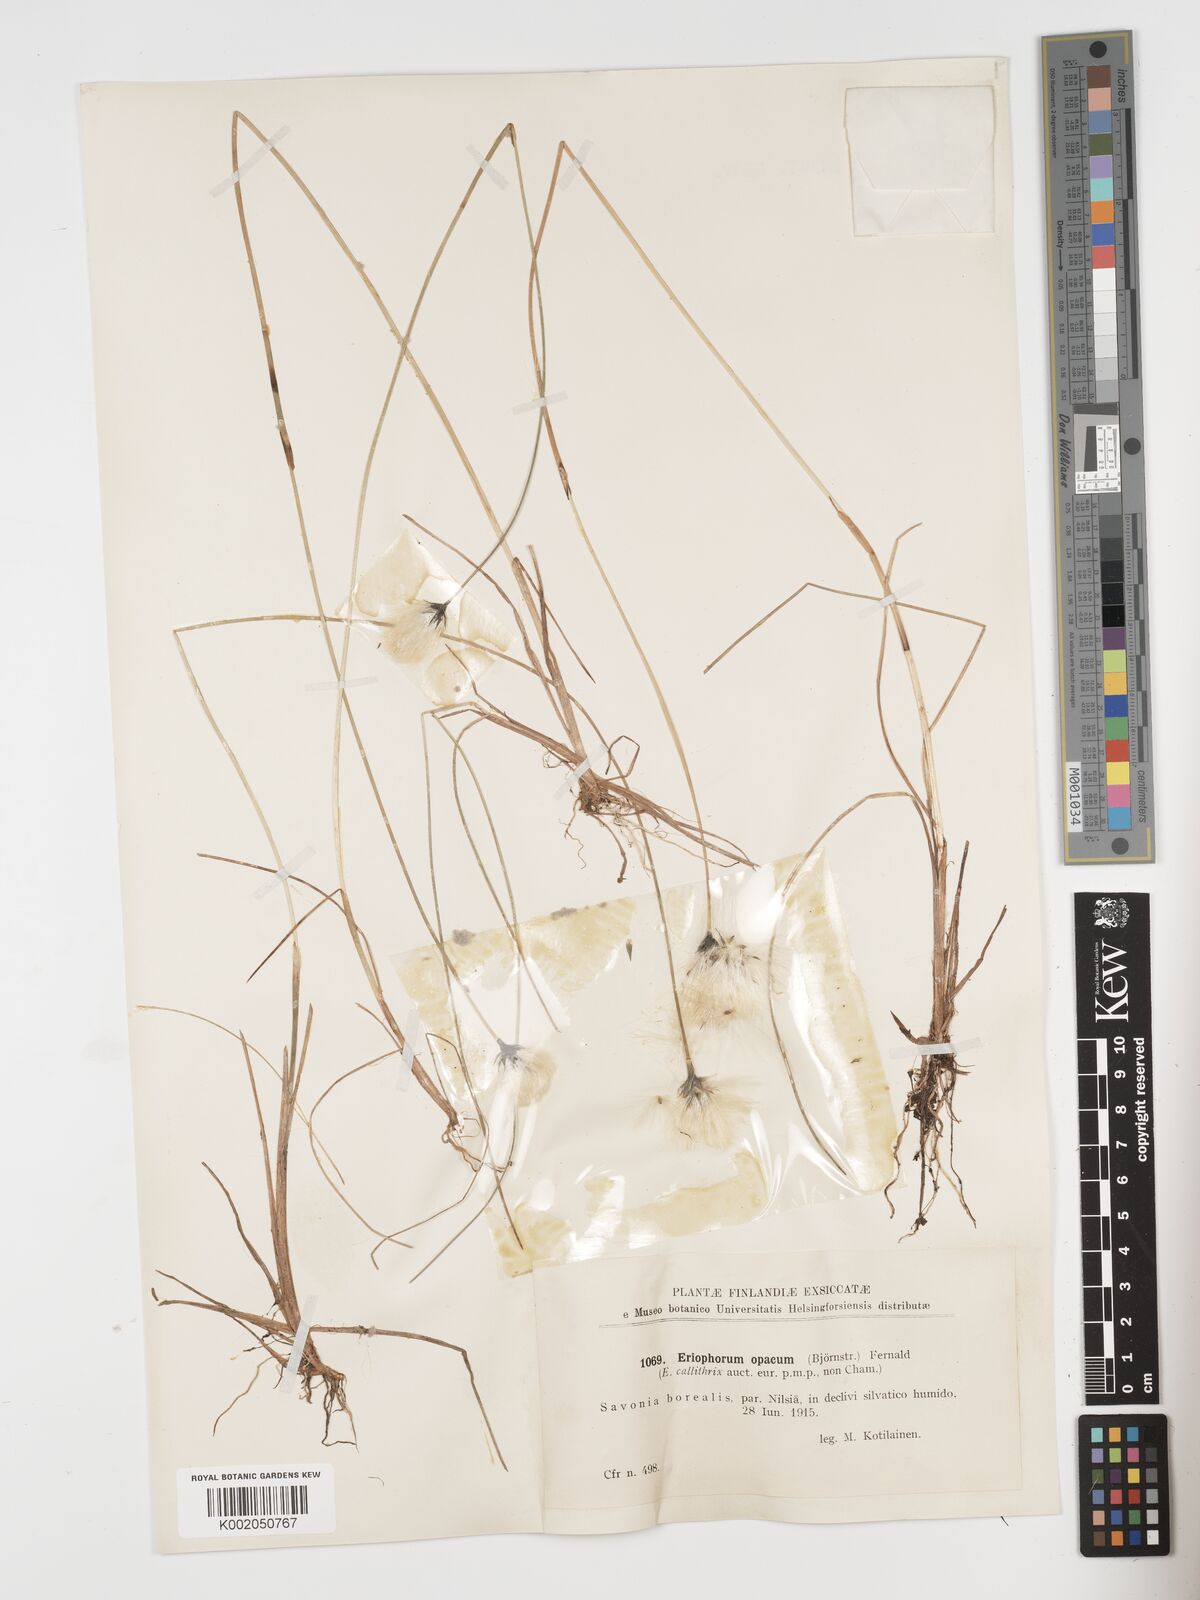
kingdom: Plantae
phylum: Tracheophyta
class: Liliopsida
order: Poales
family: Cyperaceae
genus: Eriophorum
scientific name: Eriophorum brachyantherum
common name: Closed-sheathed cottongrass
